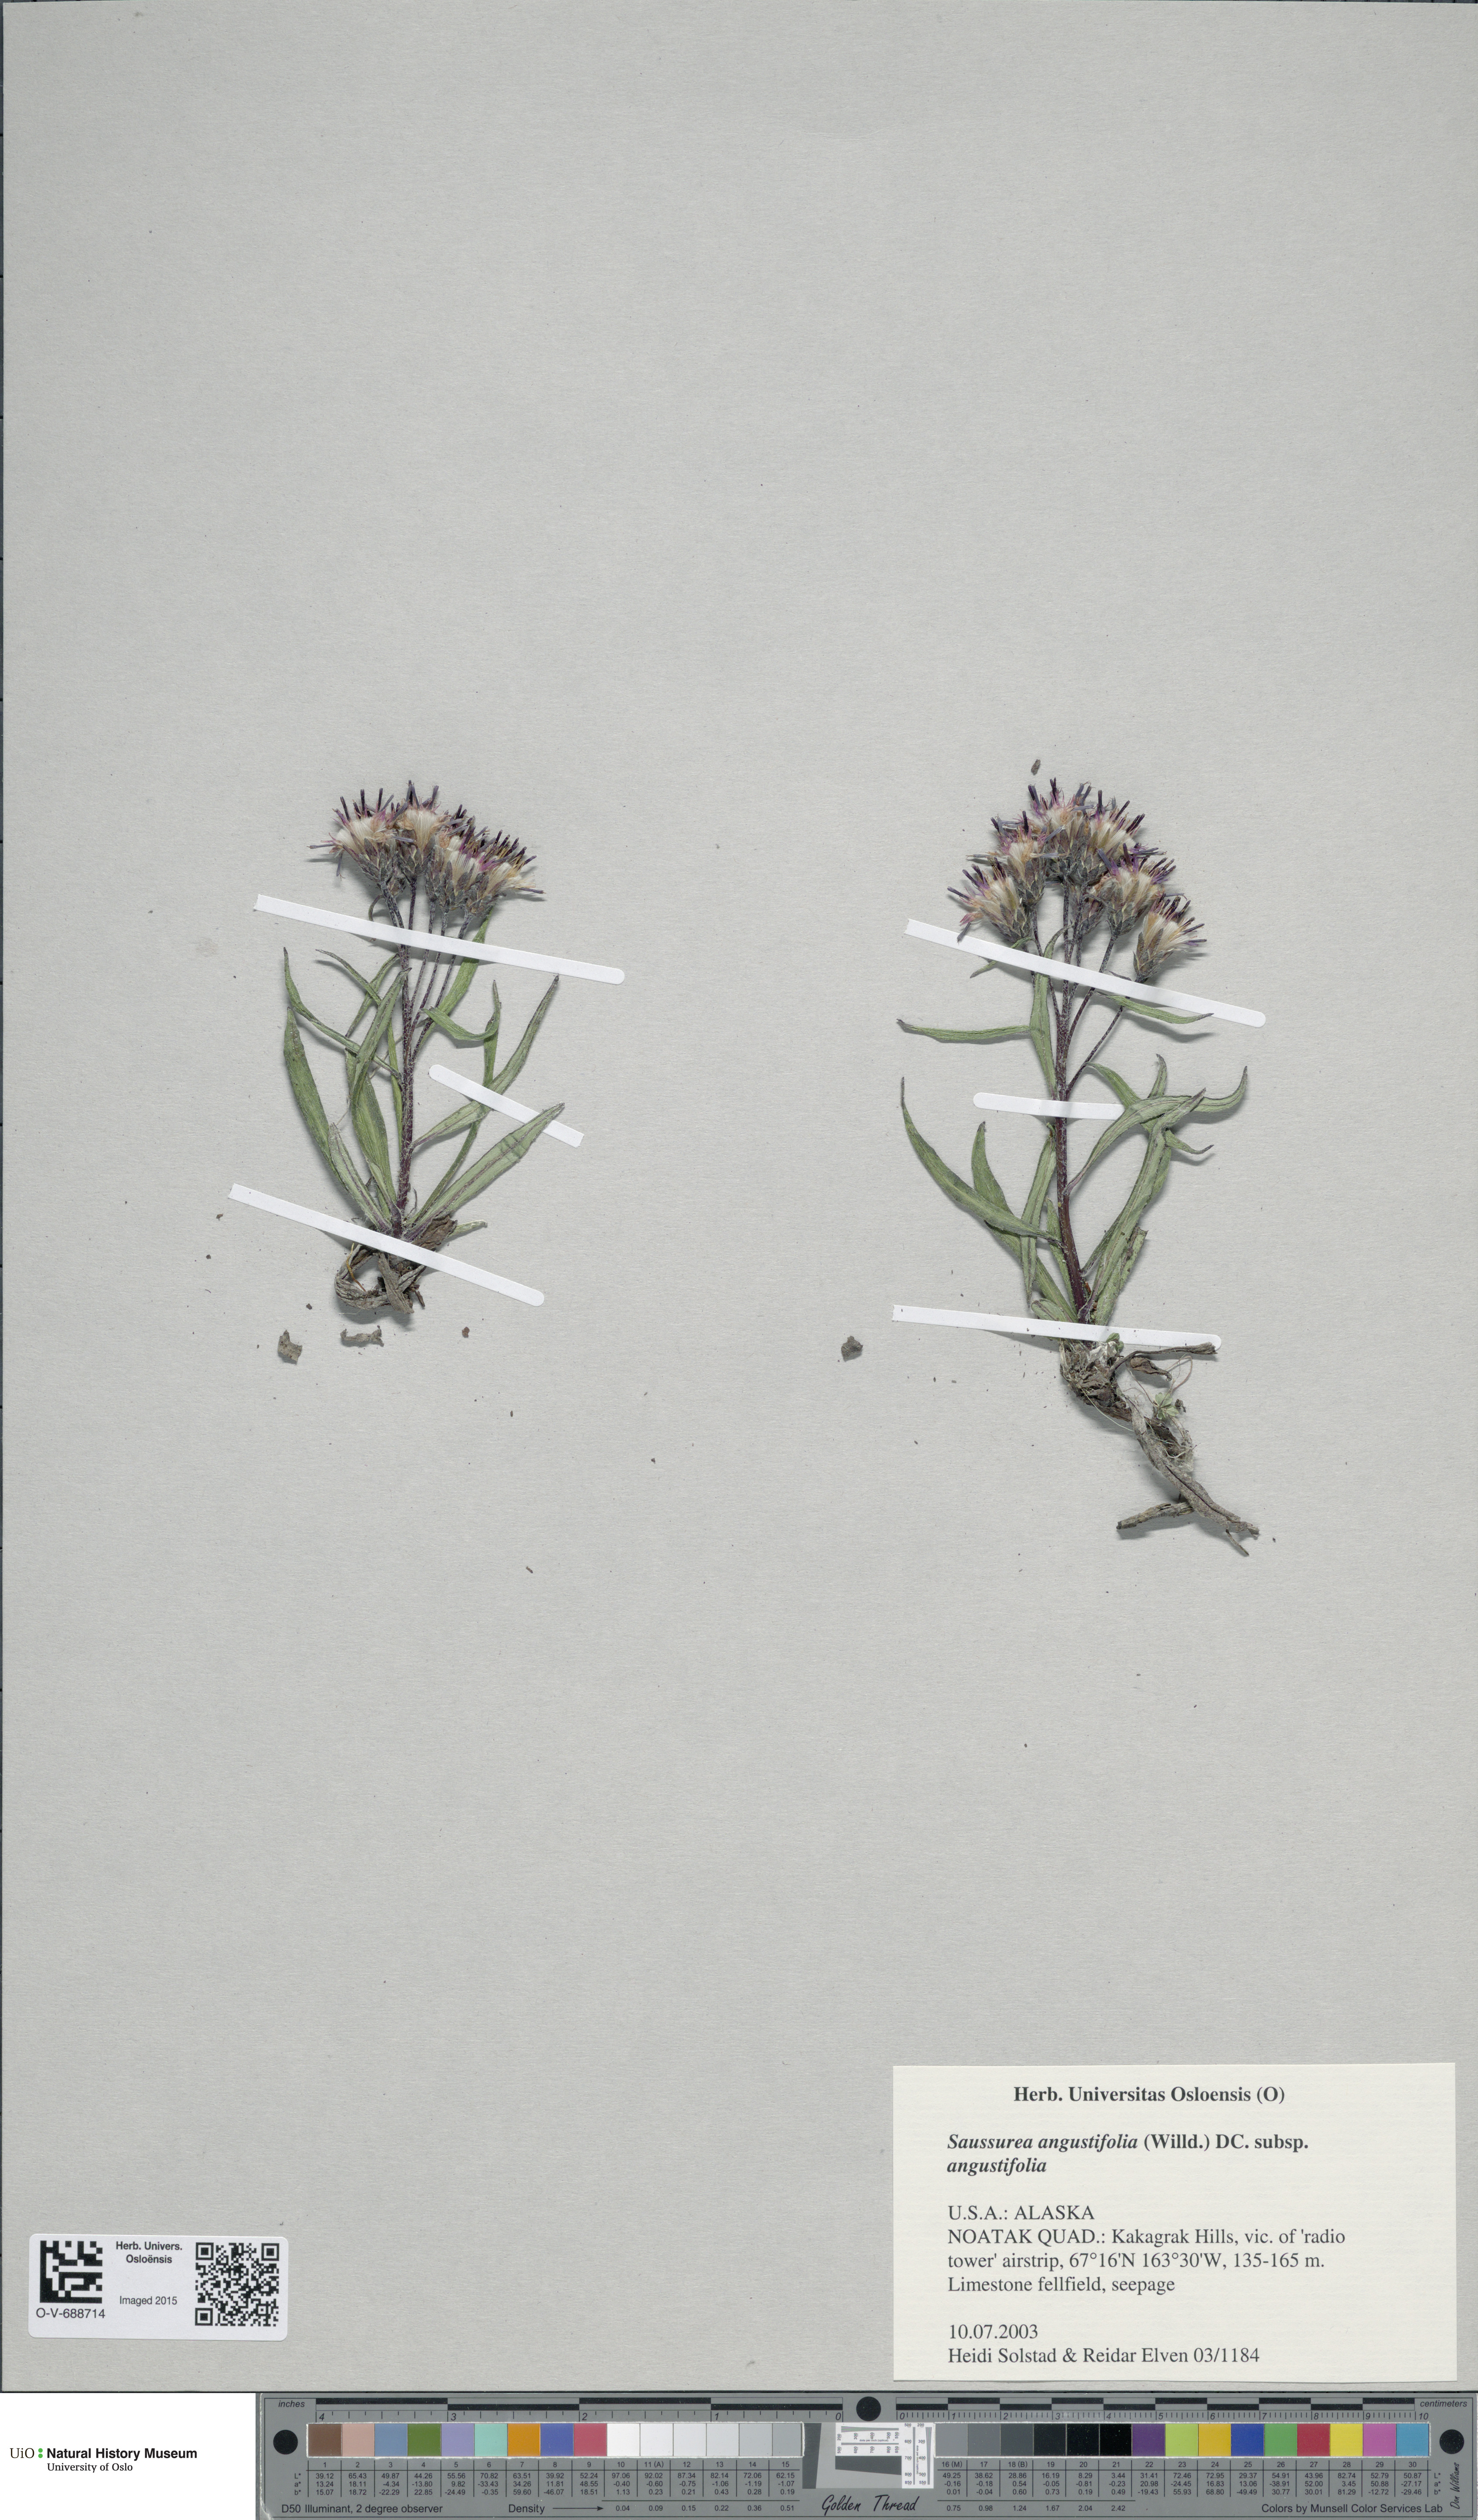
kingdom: Plantae
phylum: Tracheophyta
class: Magnoliopsida
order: Asterales
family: Asteraceae
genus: Saussurea
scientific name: Saussurea angustifolia
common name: Common saussurea
